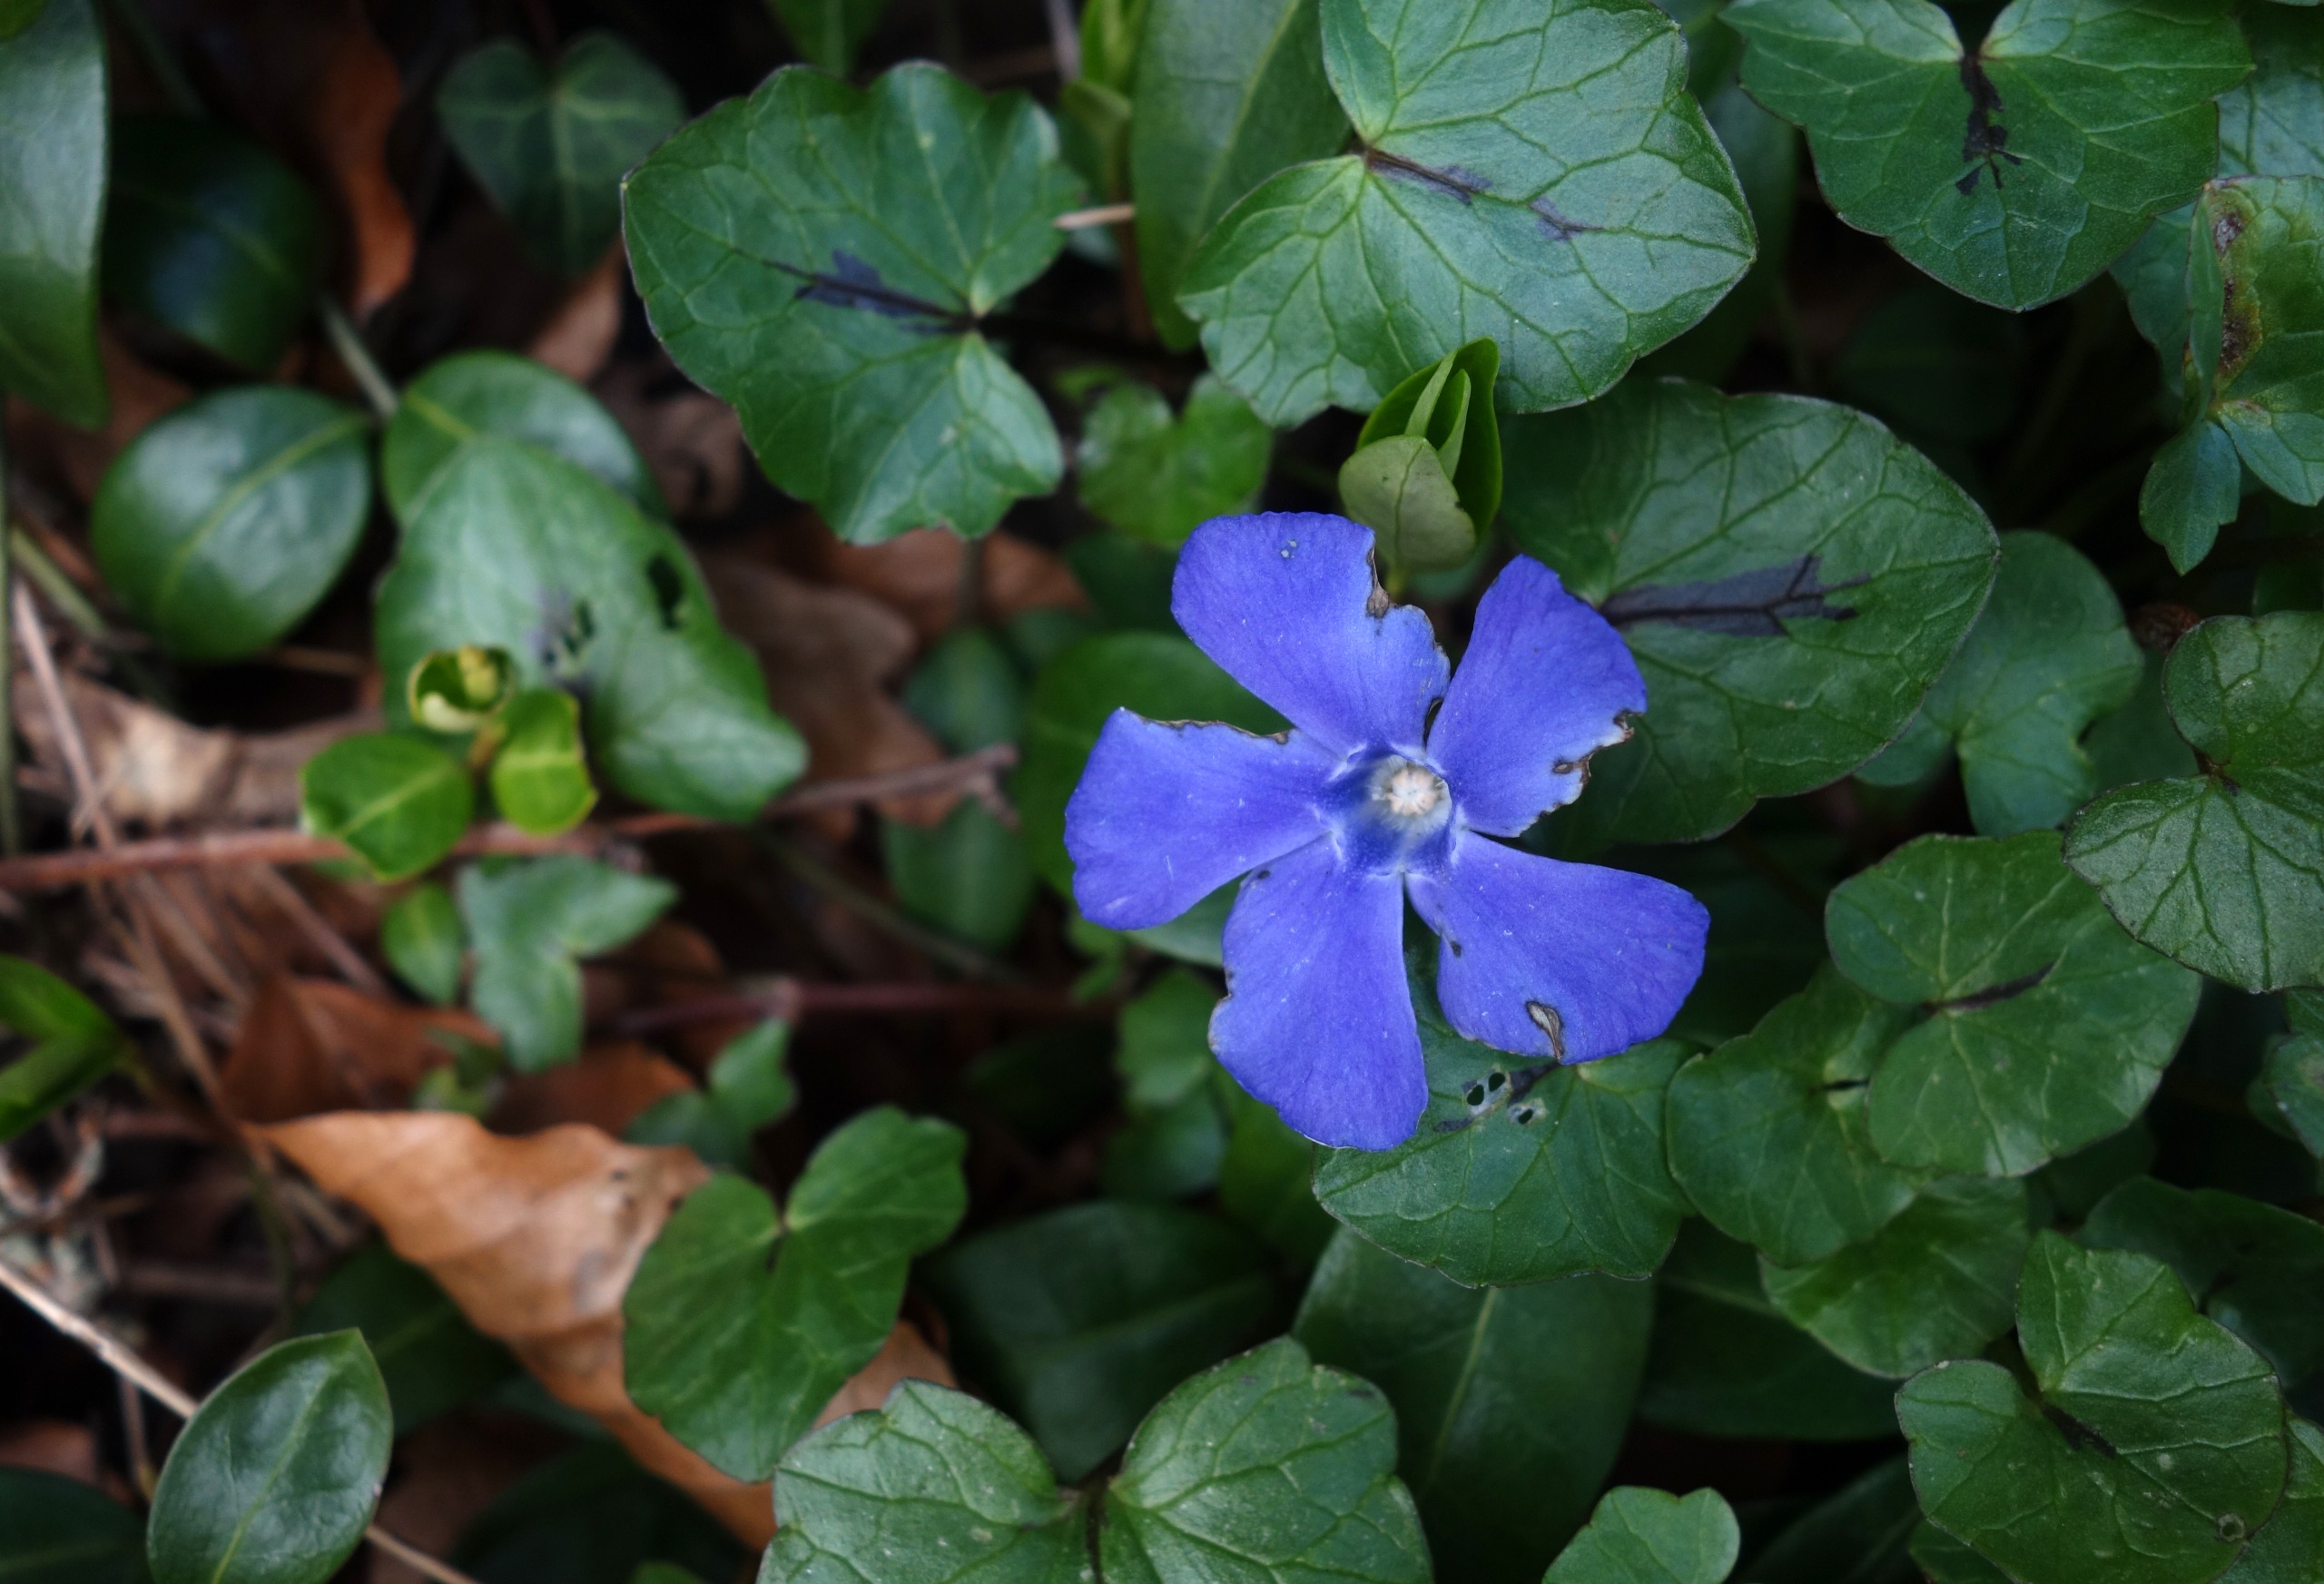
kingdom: Plantae
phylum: Tracheophyta
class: Magnoliopsida
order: Gentianales
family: Apocynaceae
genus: Vinca
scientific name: Vinca minor
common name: Liden singrøn
